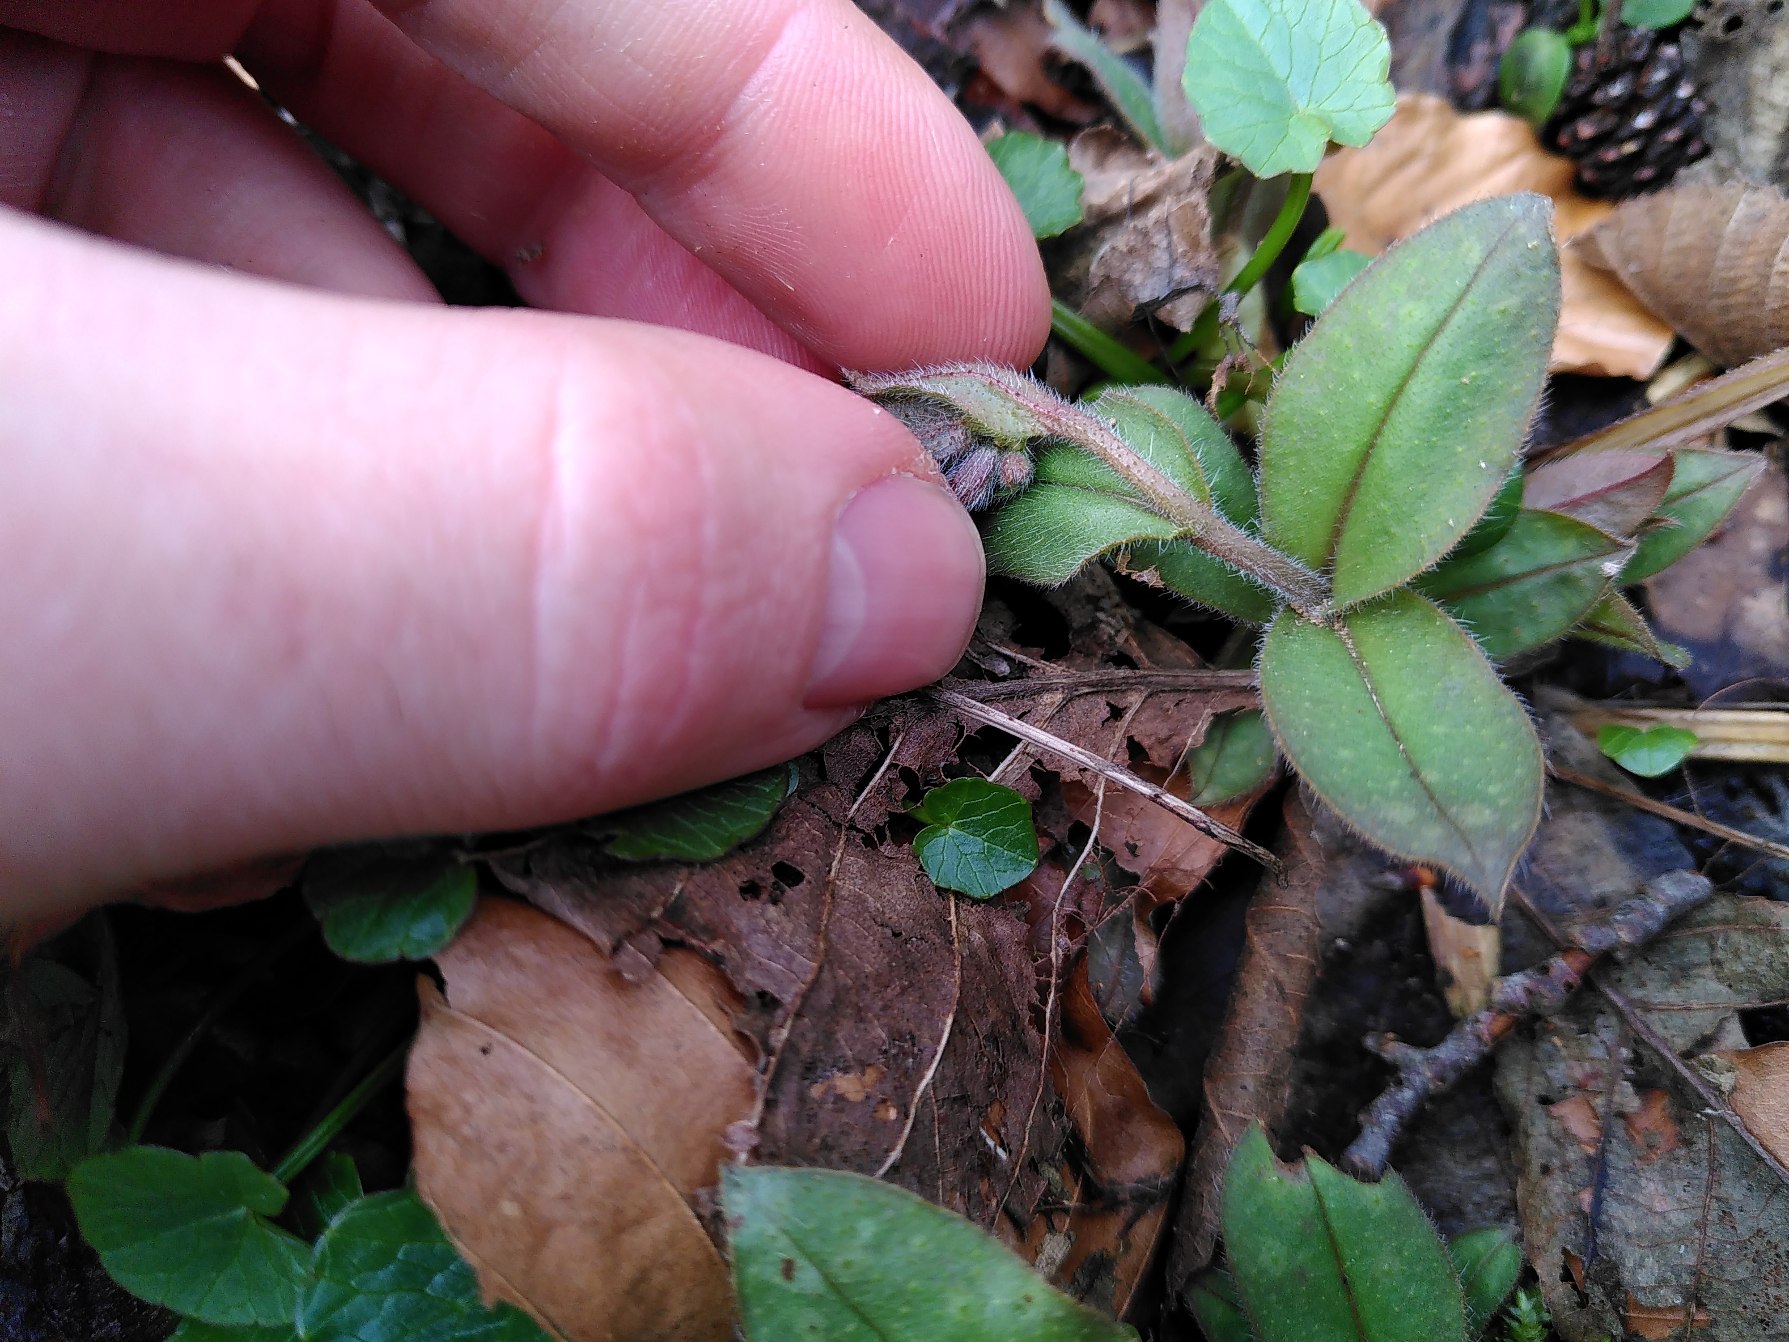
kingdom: Plantae
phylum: Tracheophyta
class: Magnoliopsida
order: Boraginales
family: Boraginaceae
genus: Pulmonaria
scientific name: Pulmonaria obscura
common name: Almindelig lungeurt
